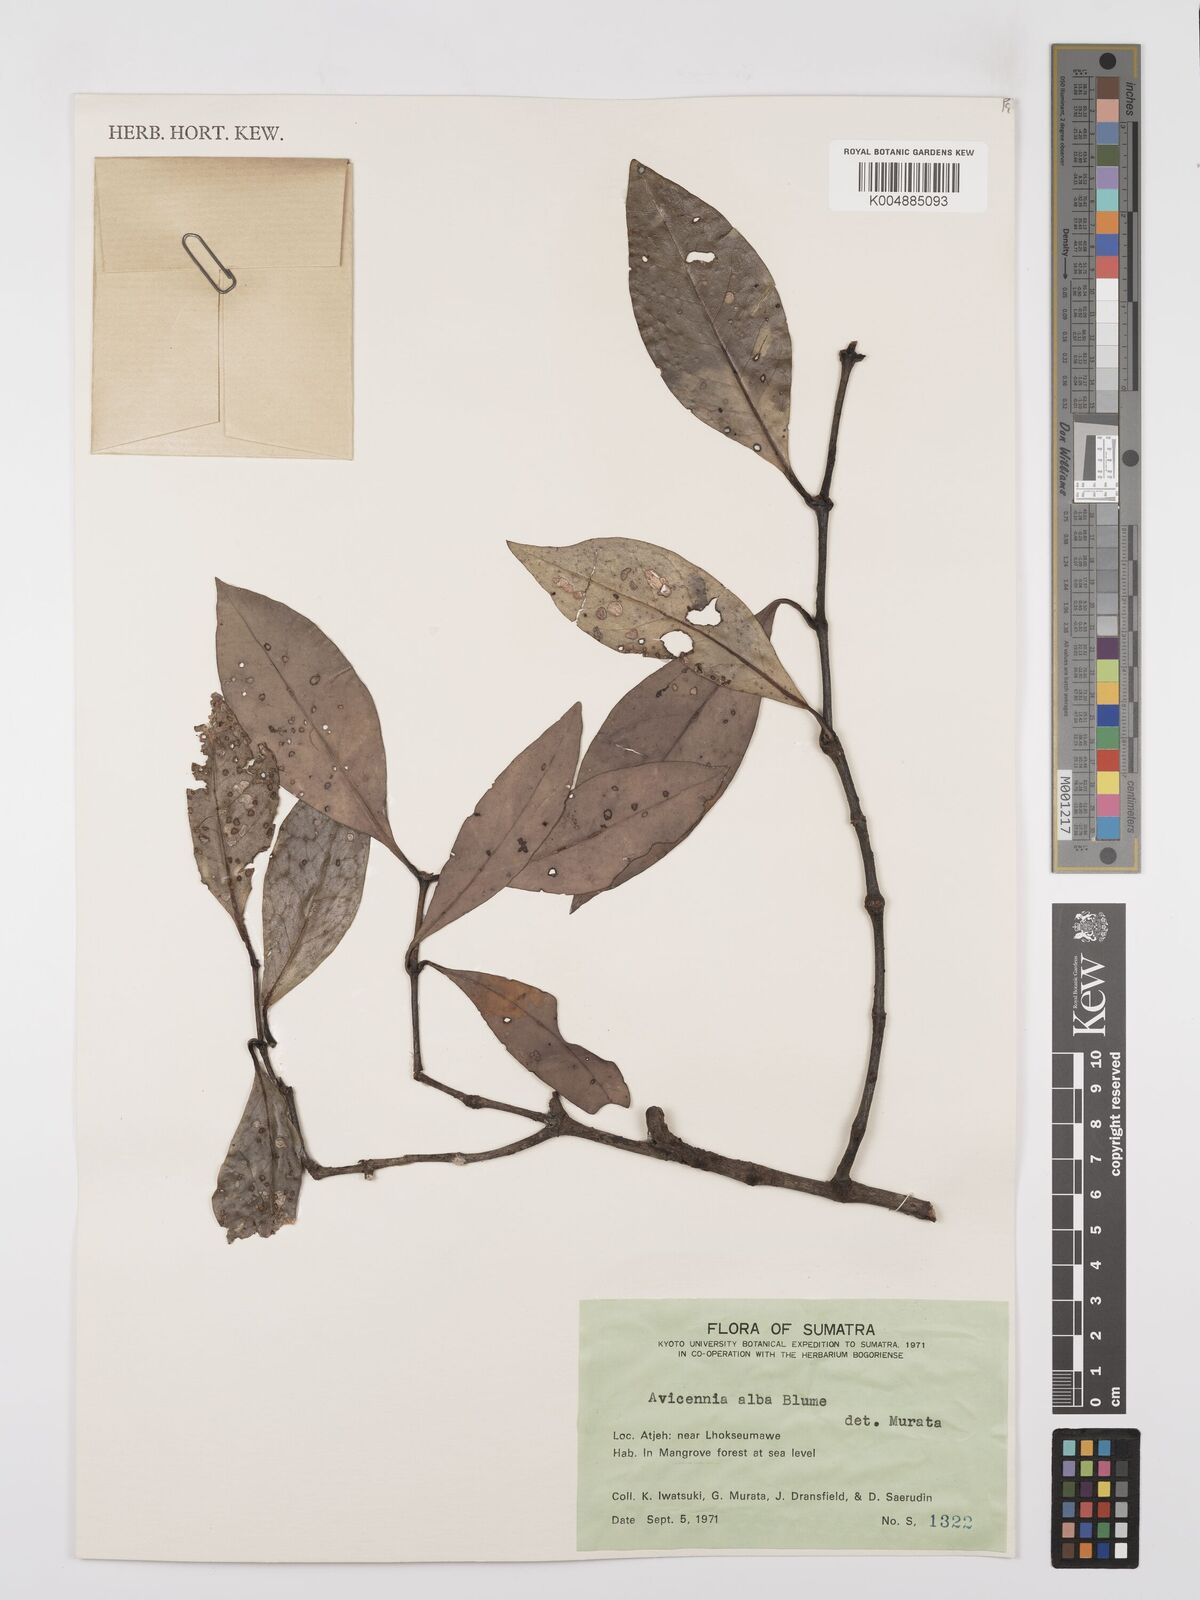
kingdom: Plantae
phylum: Tracheophyta
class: Magnoliopsida
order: Lamiales
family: Acanthaceae
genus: Avicennia
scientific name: Avicennia alba
